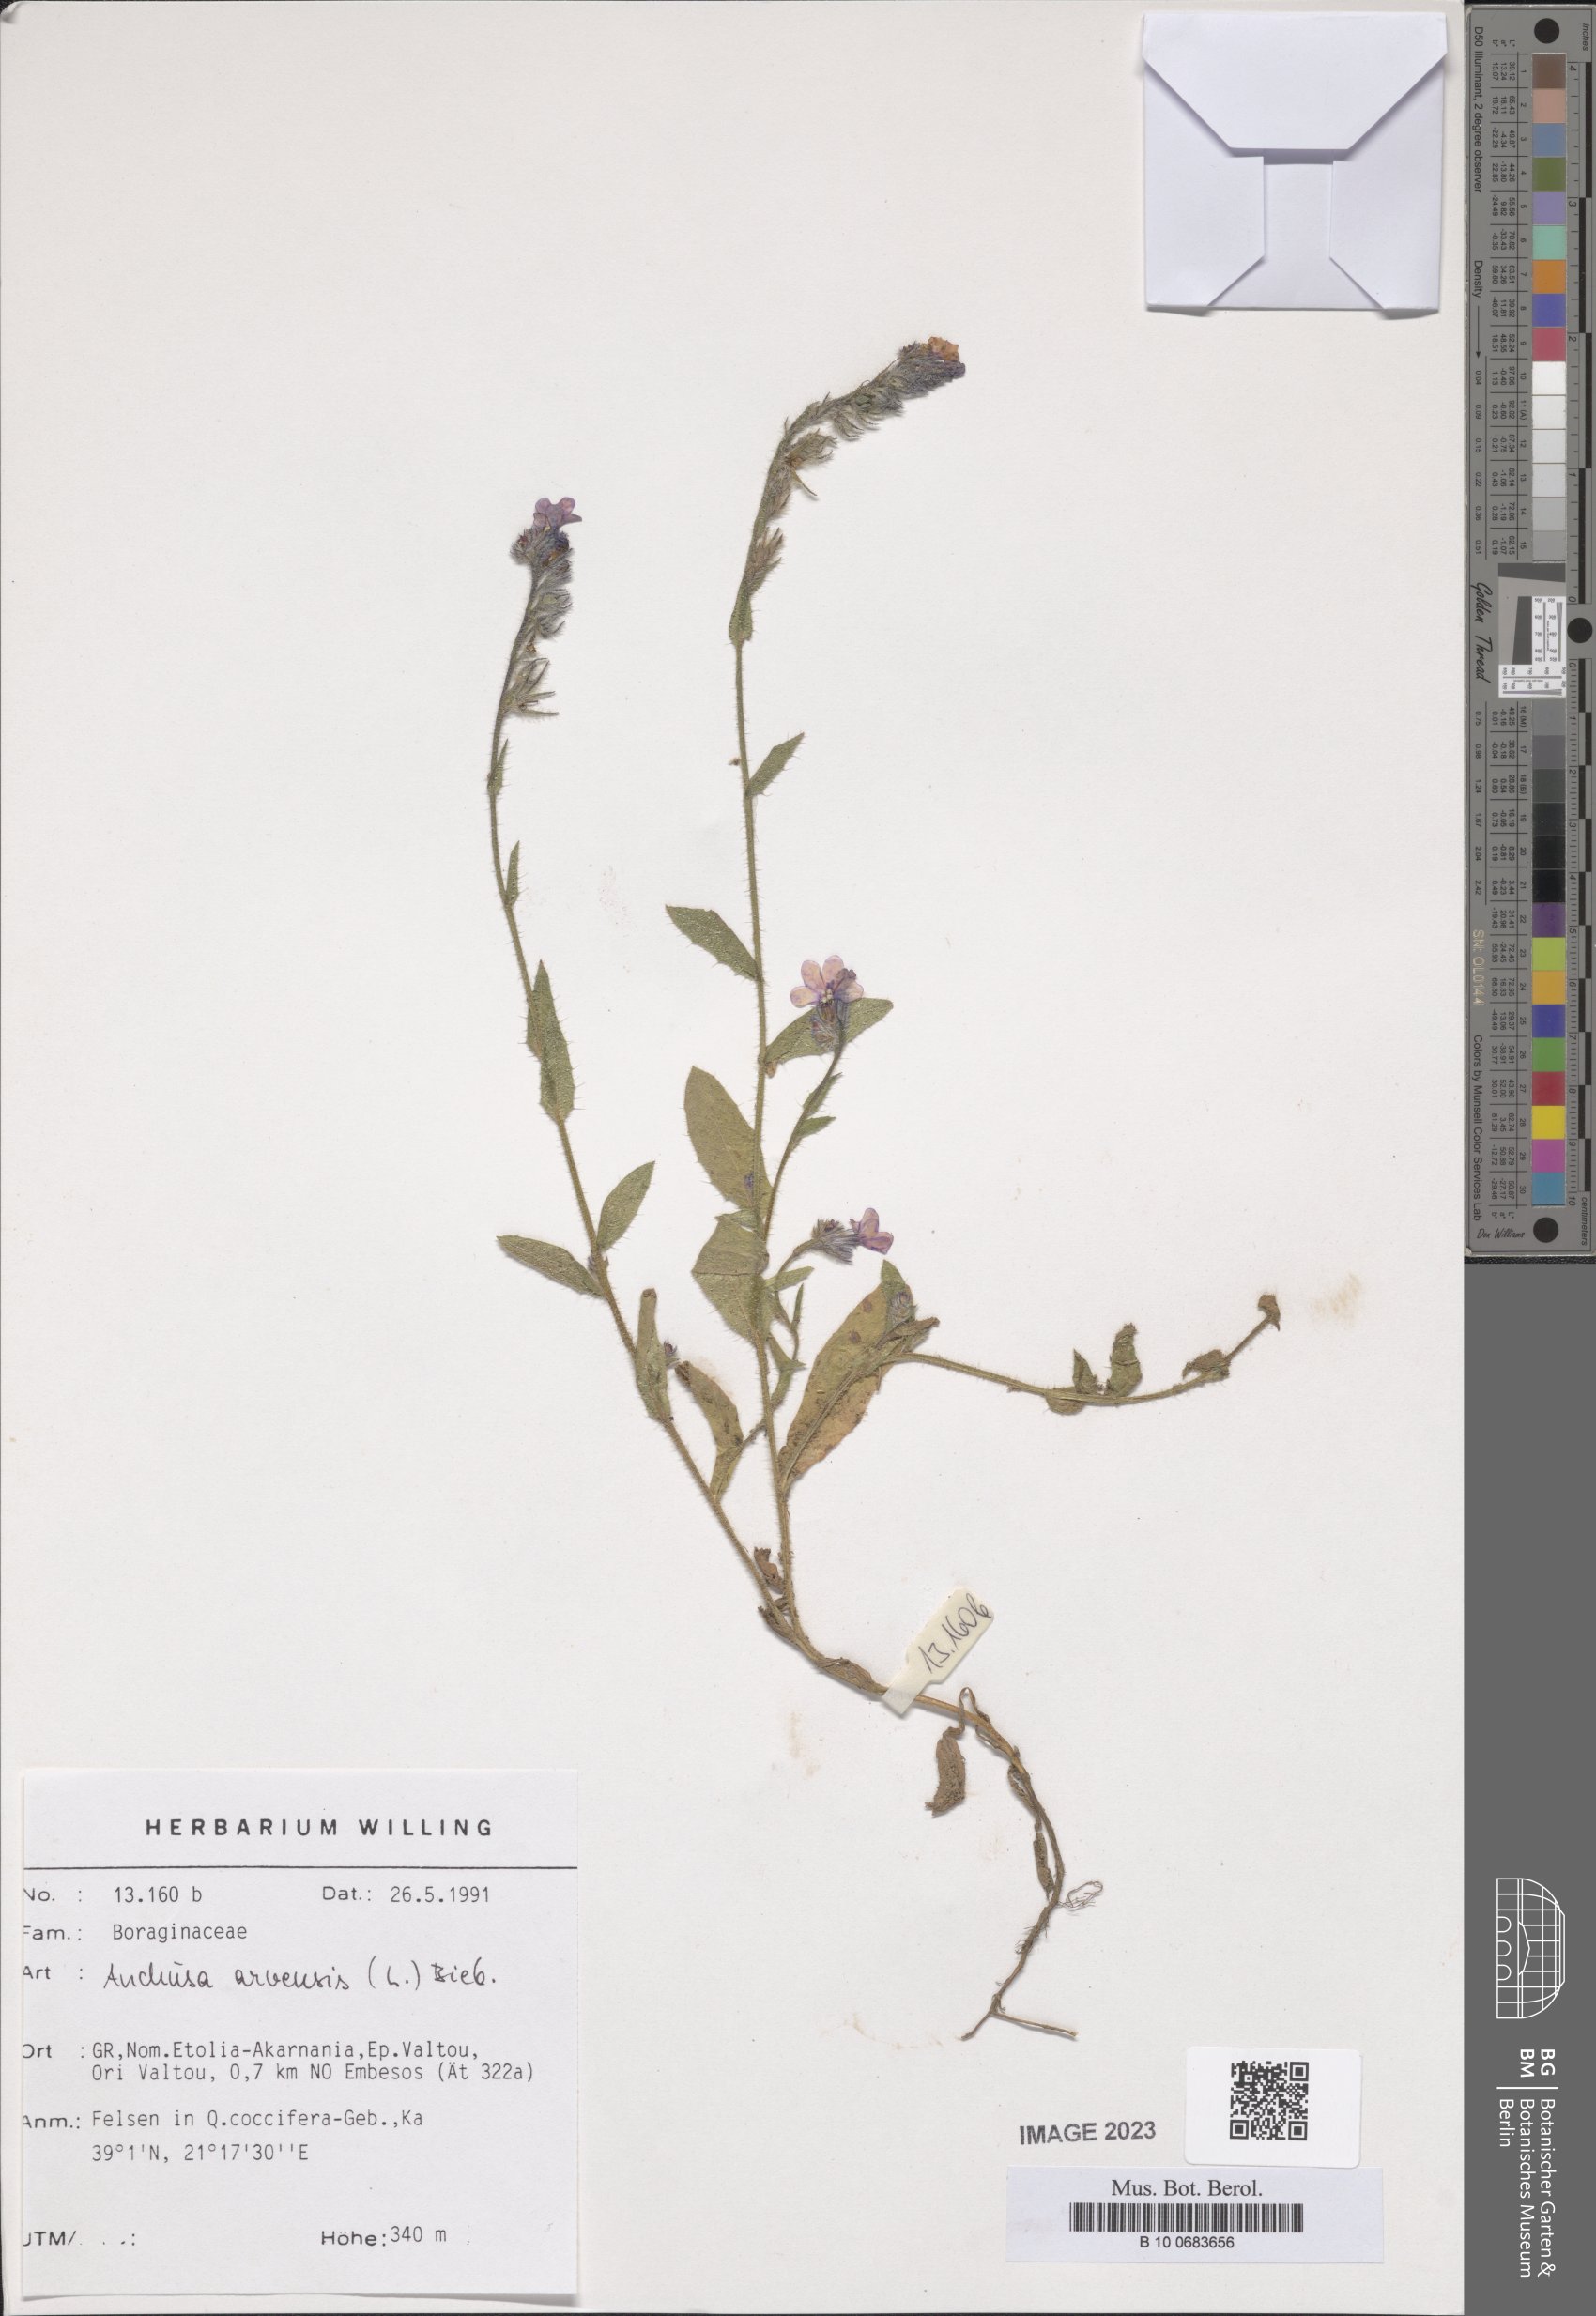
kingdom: Plantae
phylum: Tracheophyta
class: Magnoliopsida
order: Boraginales
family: Boraginaceae
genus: Anchusella
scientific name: Anchusella cretica
